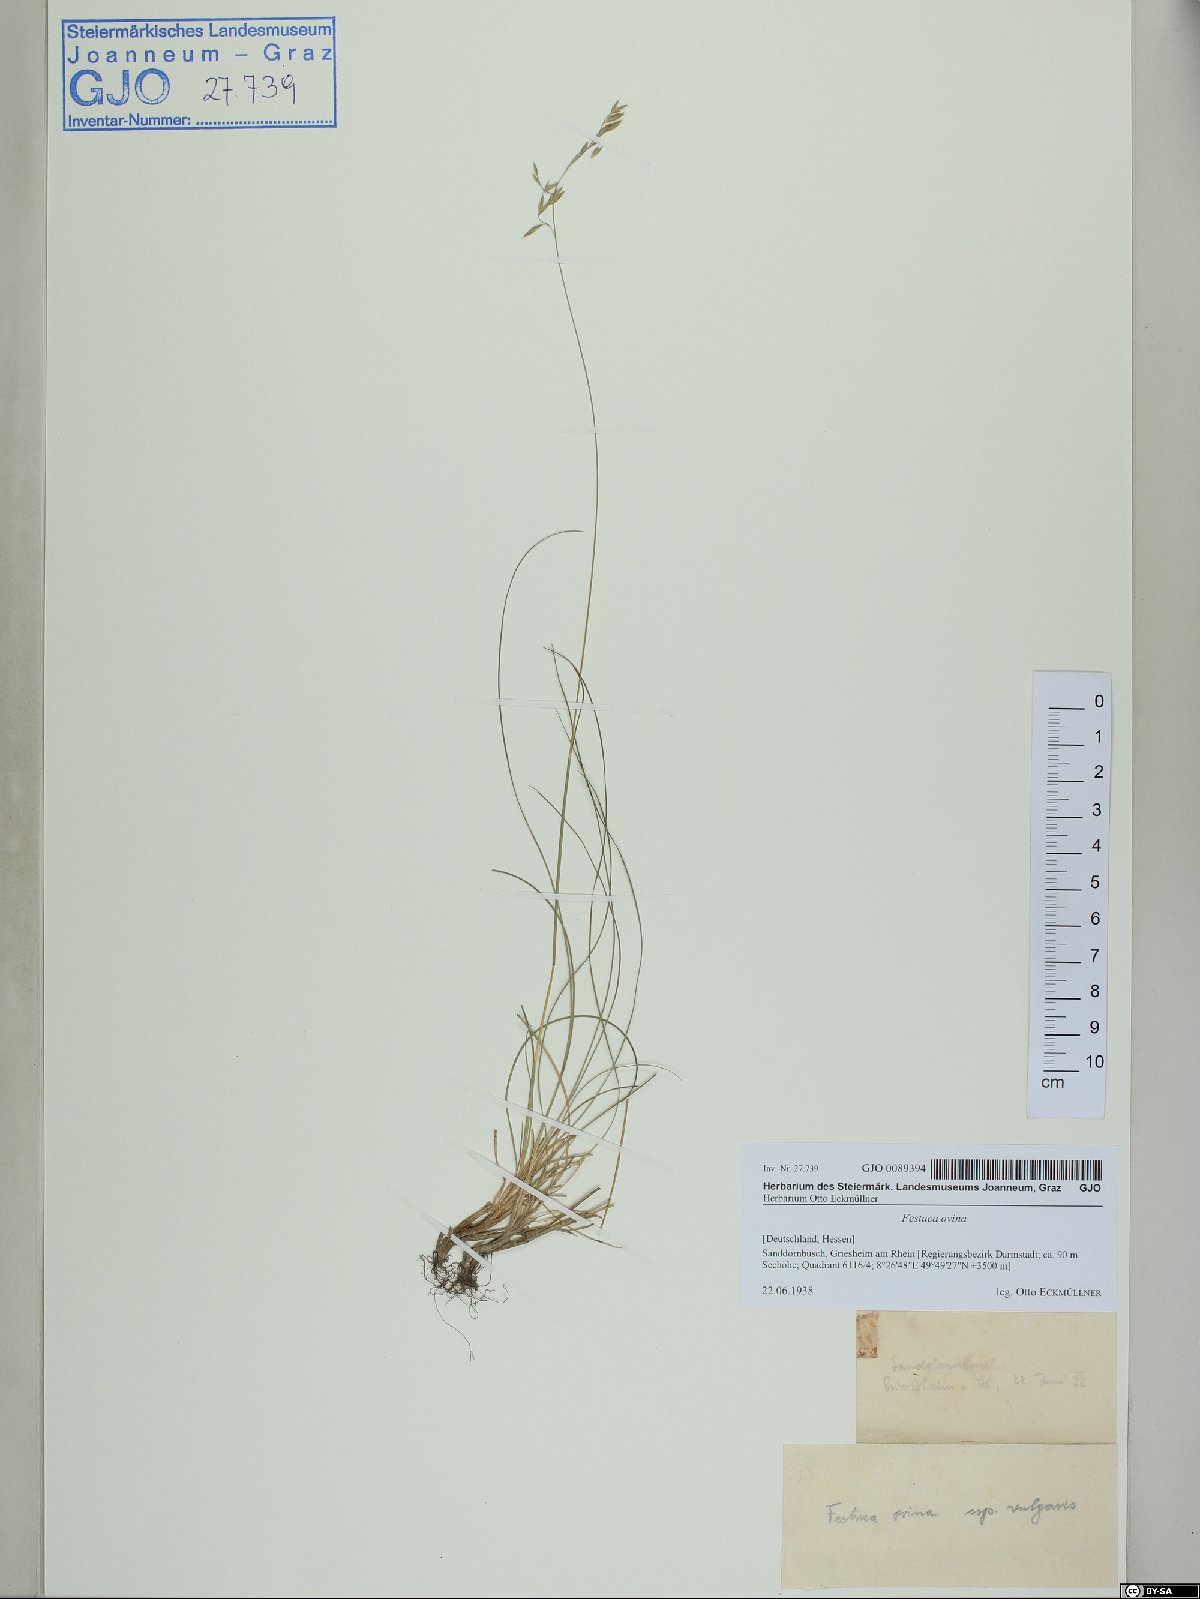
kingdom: Plantae
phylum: Tracheophyta
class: Liliopsida
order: Poales
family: Poaceae
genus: Festuca
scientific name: Festuca ovina
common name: Sheep fescue
